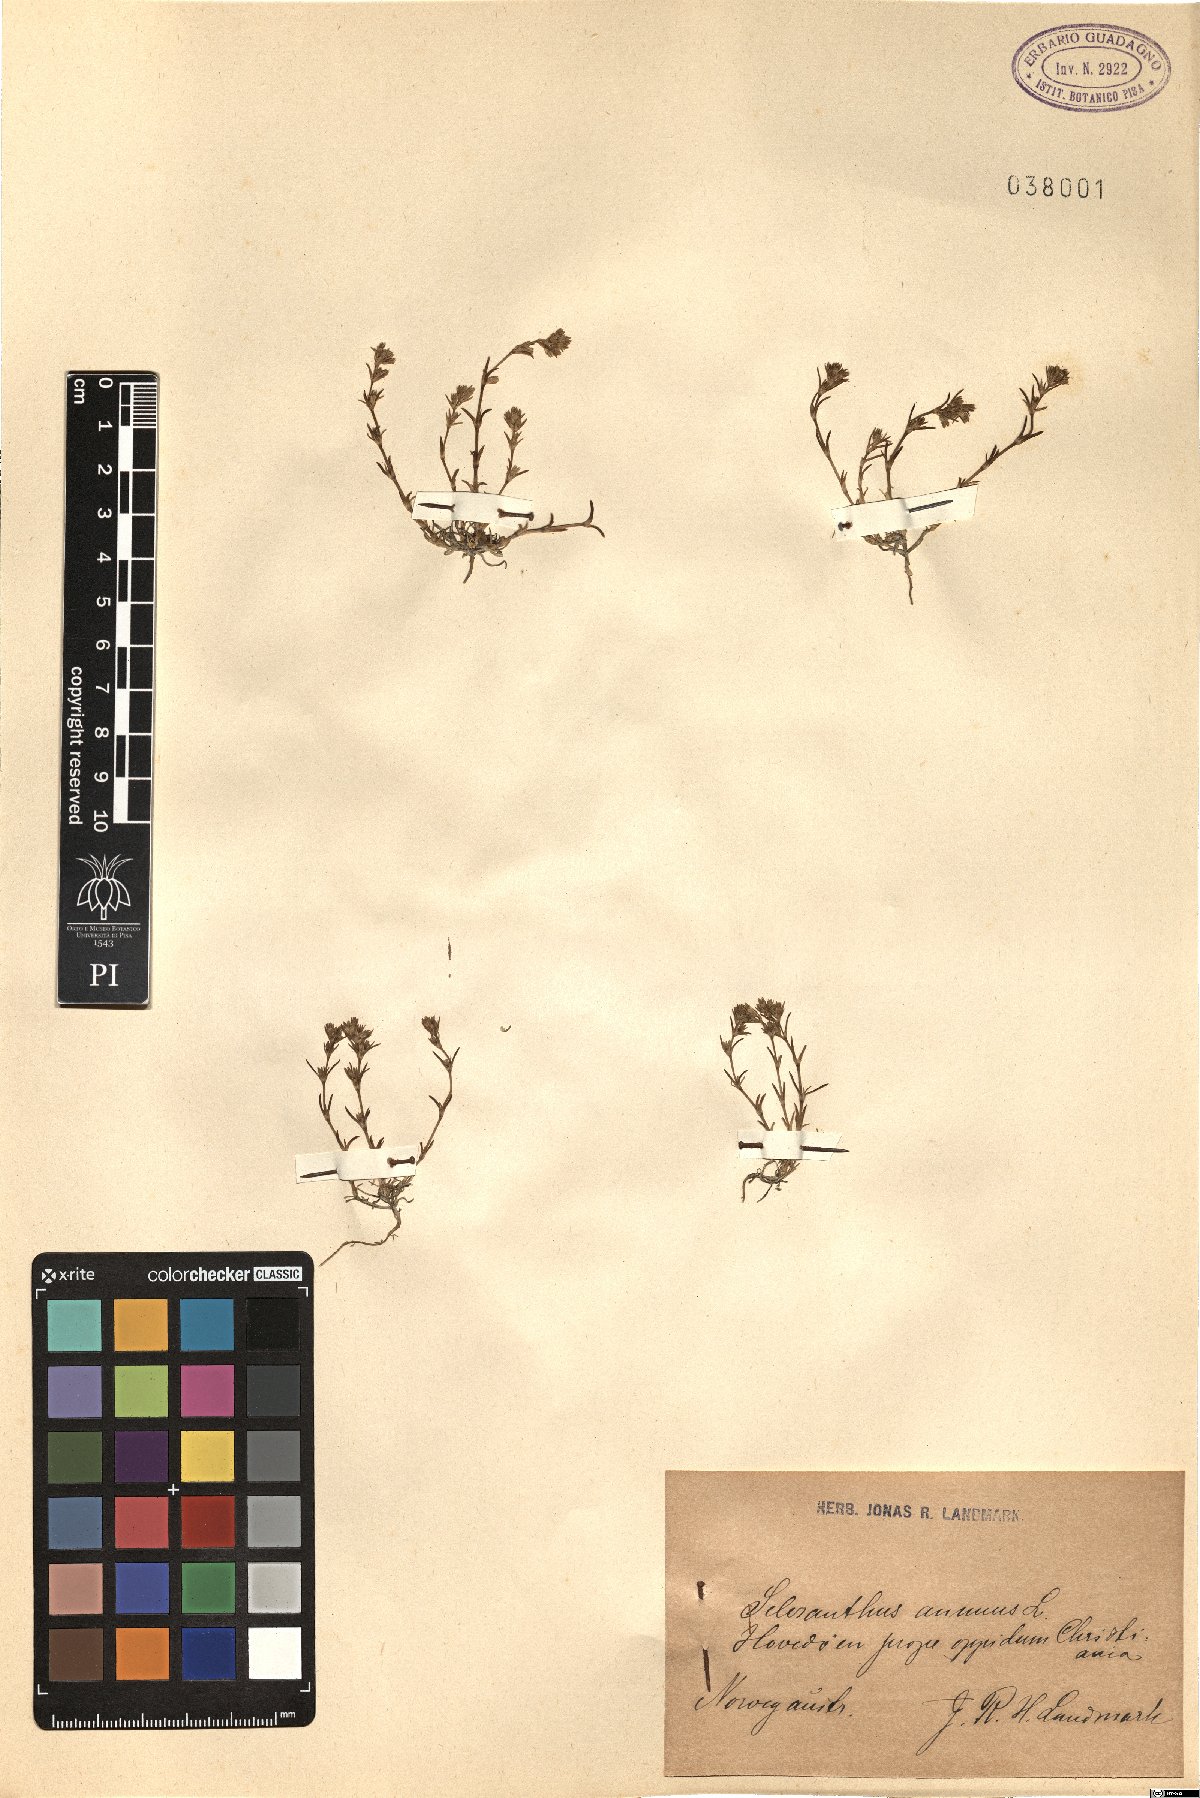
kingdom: Plantae
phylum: Tracheophyta
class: Magnoliopsida
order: Caryophyllales
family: Caryophyllaceae
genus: Scleranthus
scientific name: Scleranthus annuus
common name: Annual knawel
